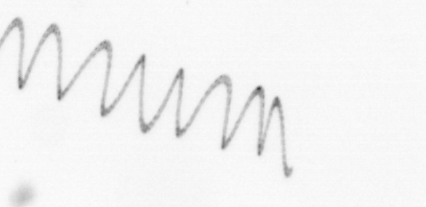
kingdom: Chromista
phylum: Ochrophyta
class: Bacillariophyceae
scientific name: Bacillariophyceae
